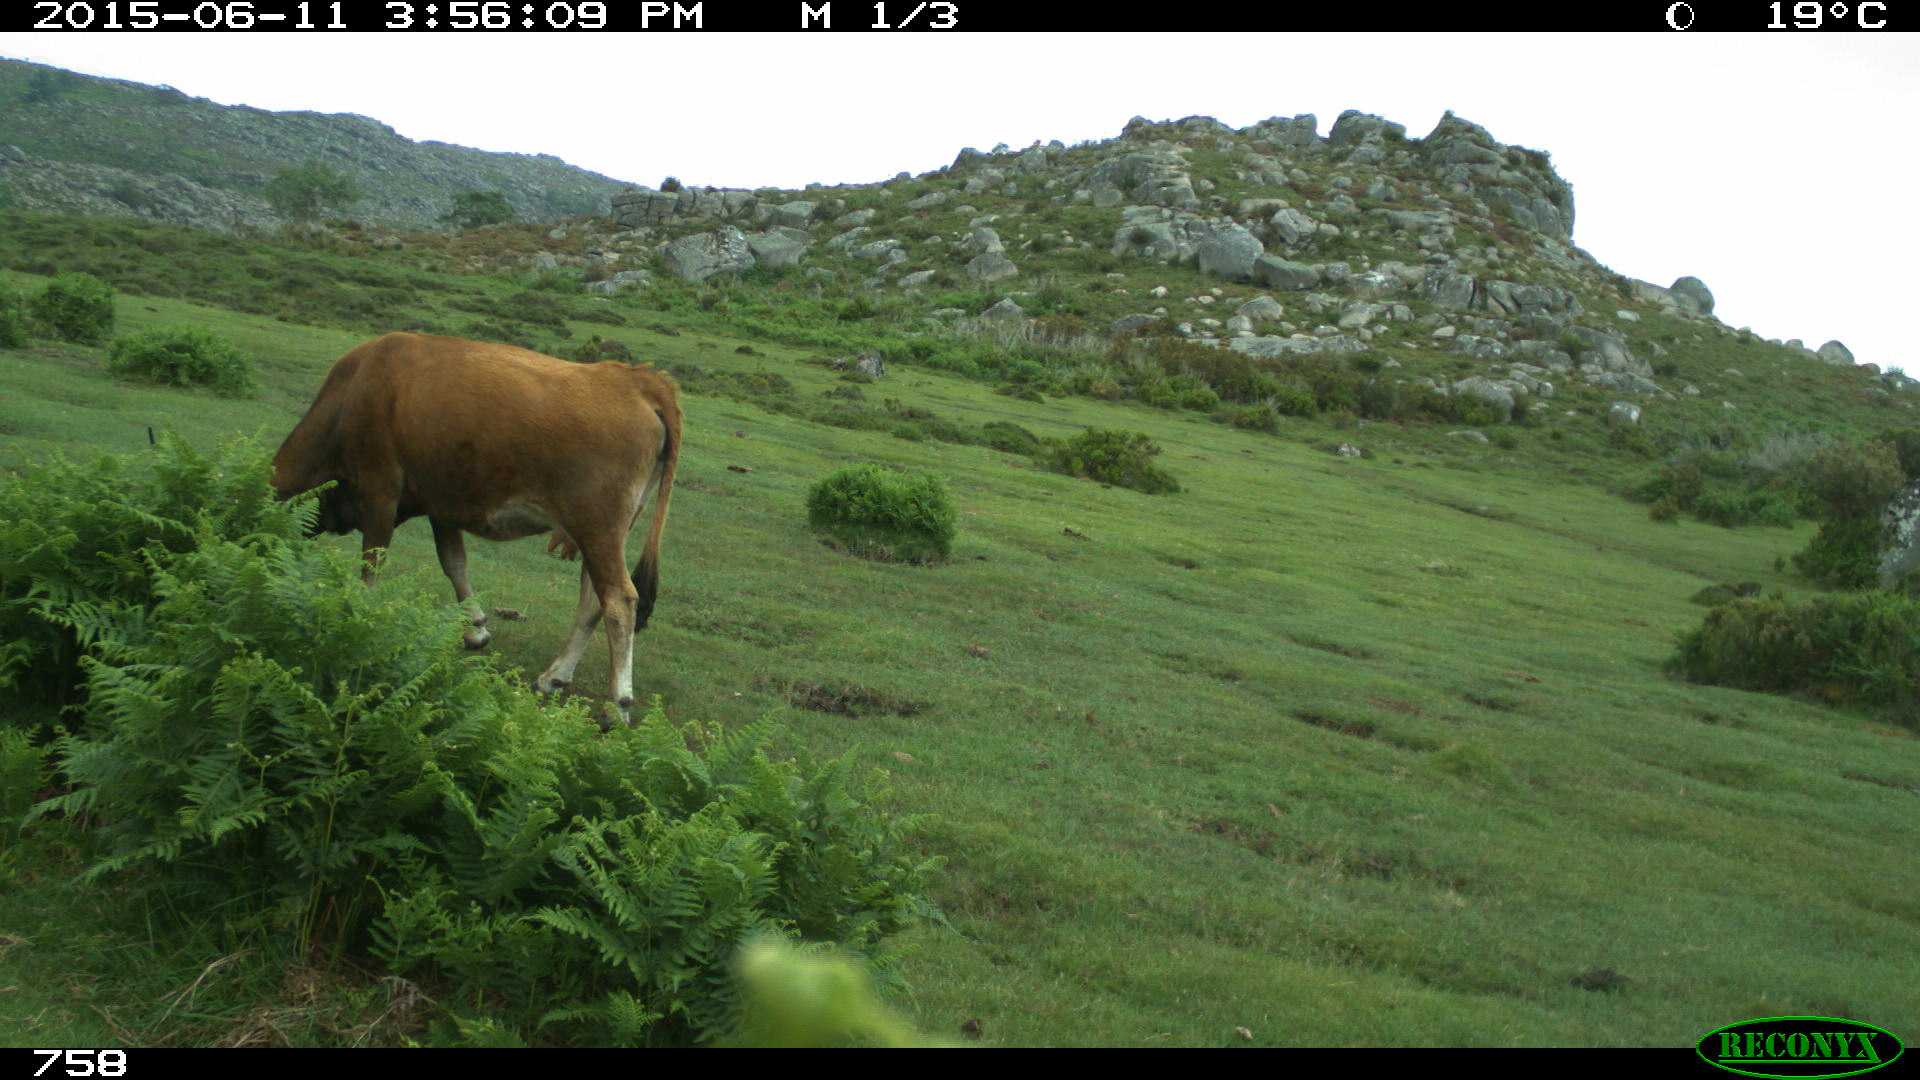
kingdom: Animalia
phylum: Chordata
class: Mammalia
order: Artiodactyla
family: Bovidae
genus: Bos
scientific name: Bos taurus
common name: Domesticated cattle
